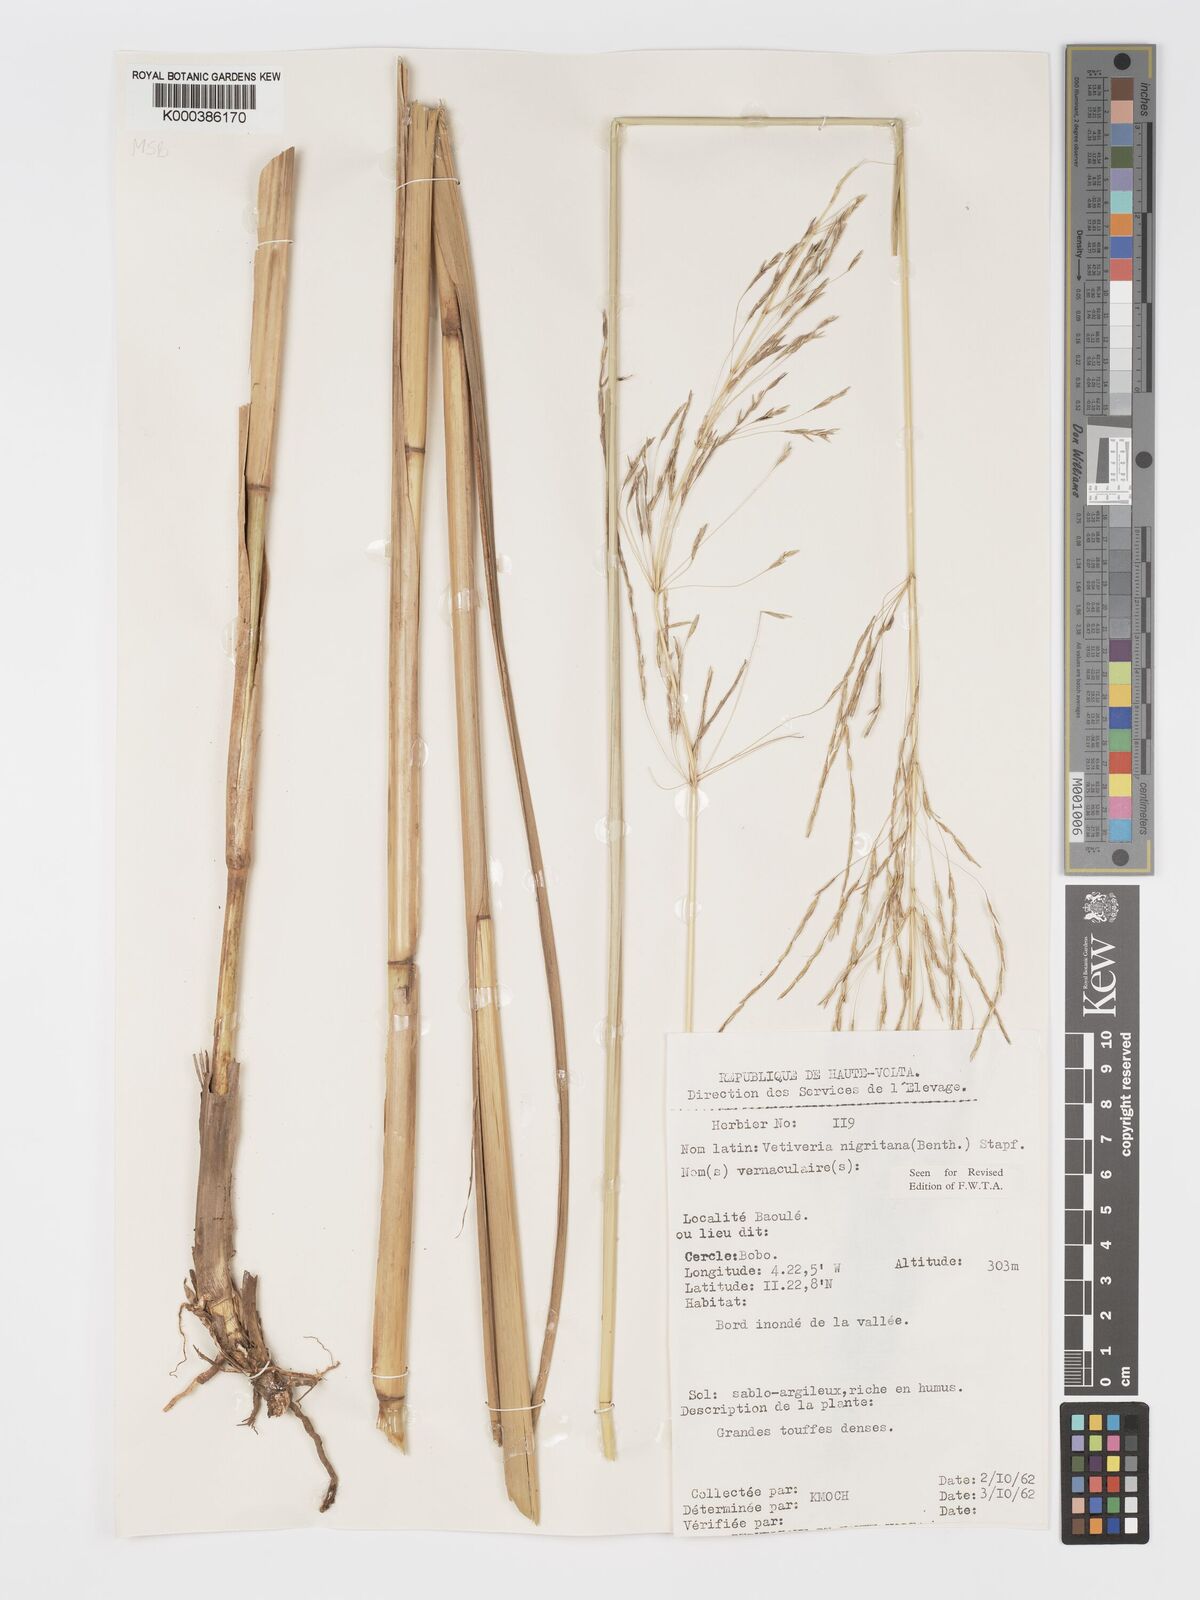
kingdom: Plantae
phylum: Tracheophyta
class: Liliopsida
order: Poales
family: Poaceae
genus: Chrysopogon
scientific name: Chrysopogon nigritanus
